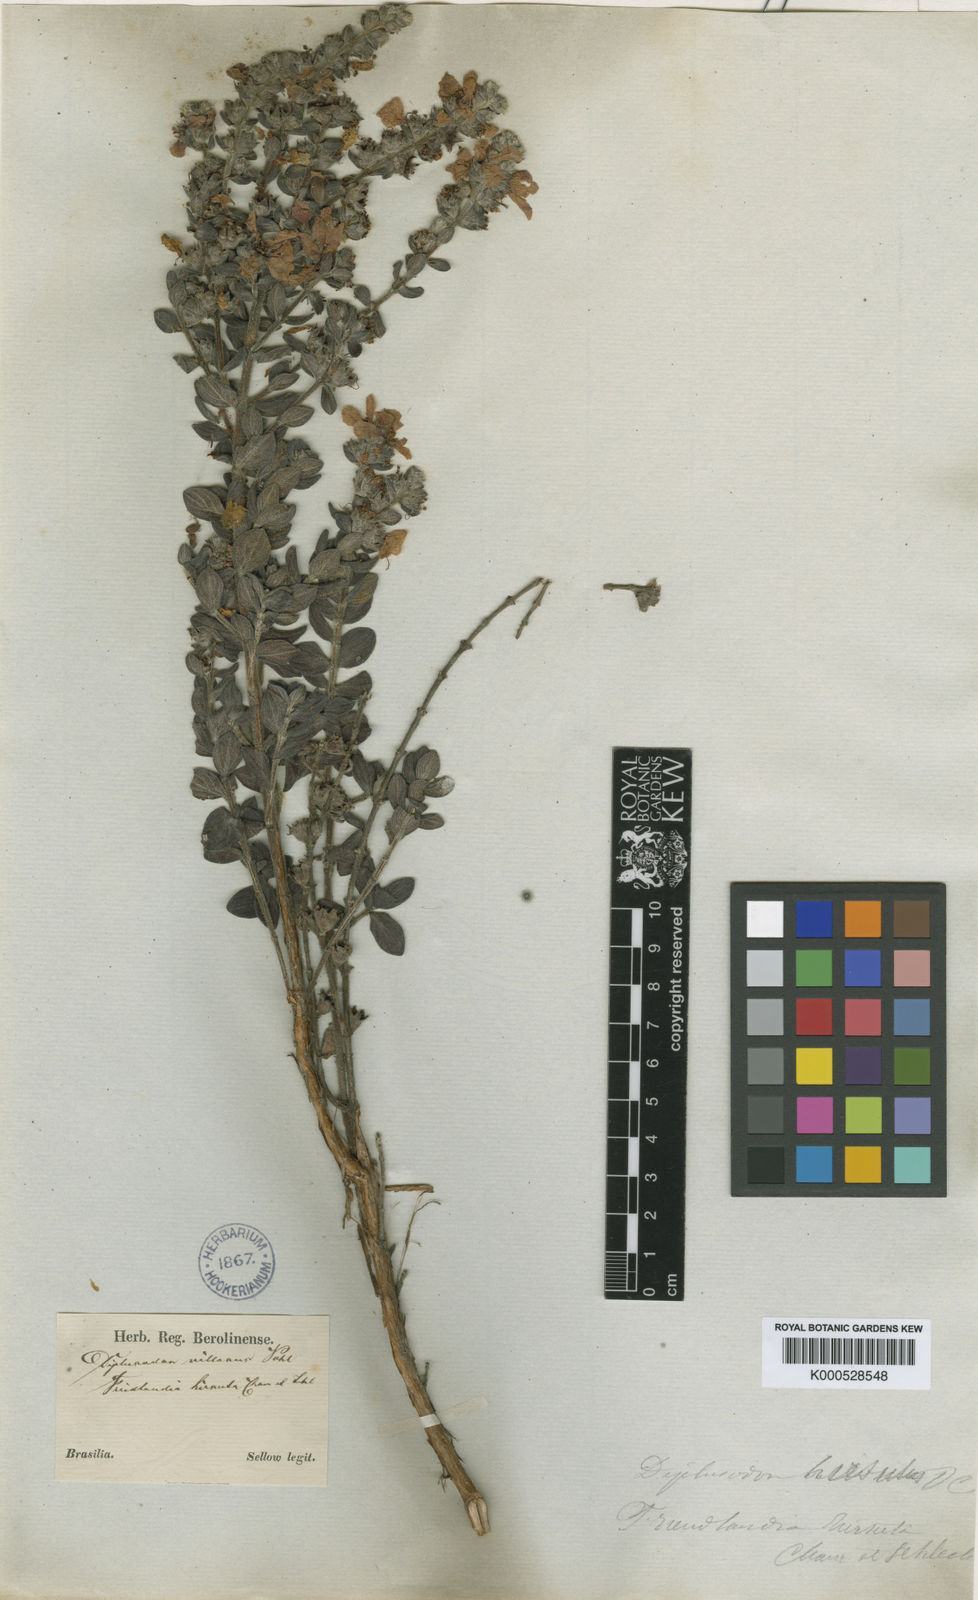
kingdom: Plantae
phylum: Tracheophyta
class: Magnoliopsida
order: Myrtales
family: Lythraceae
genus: Diplusodon
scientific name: Diplusodon hirsutus
